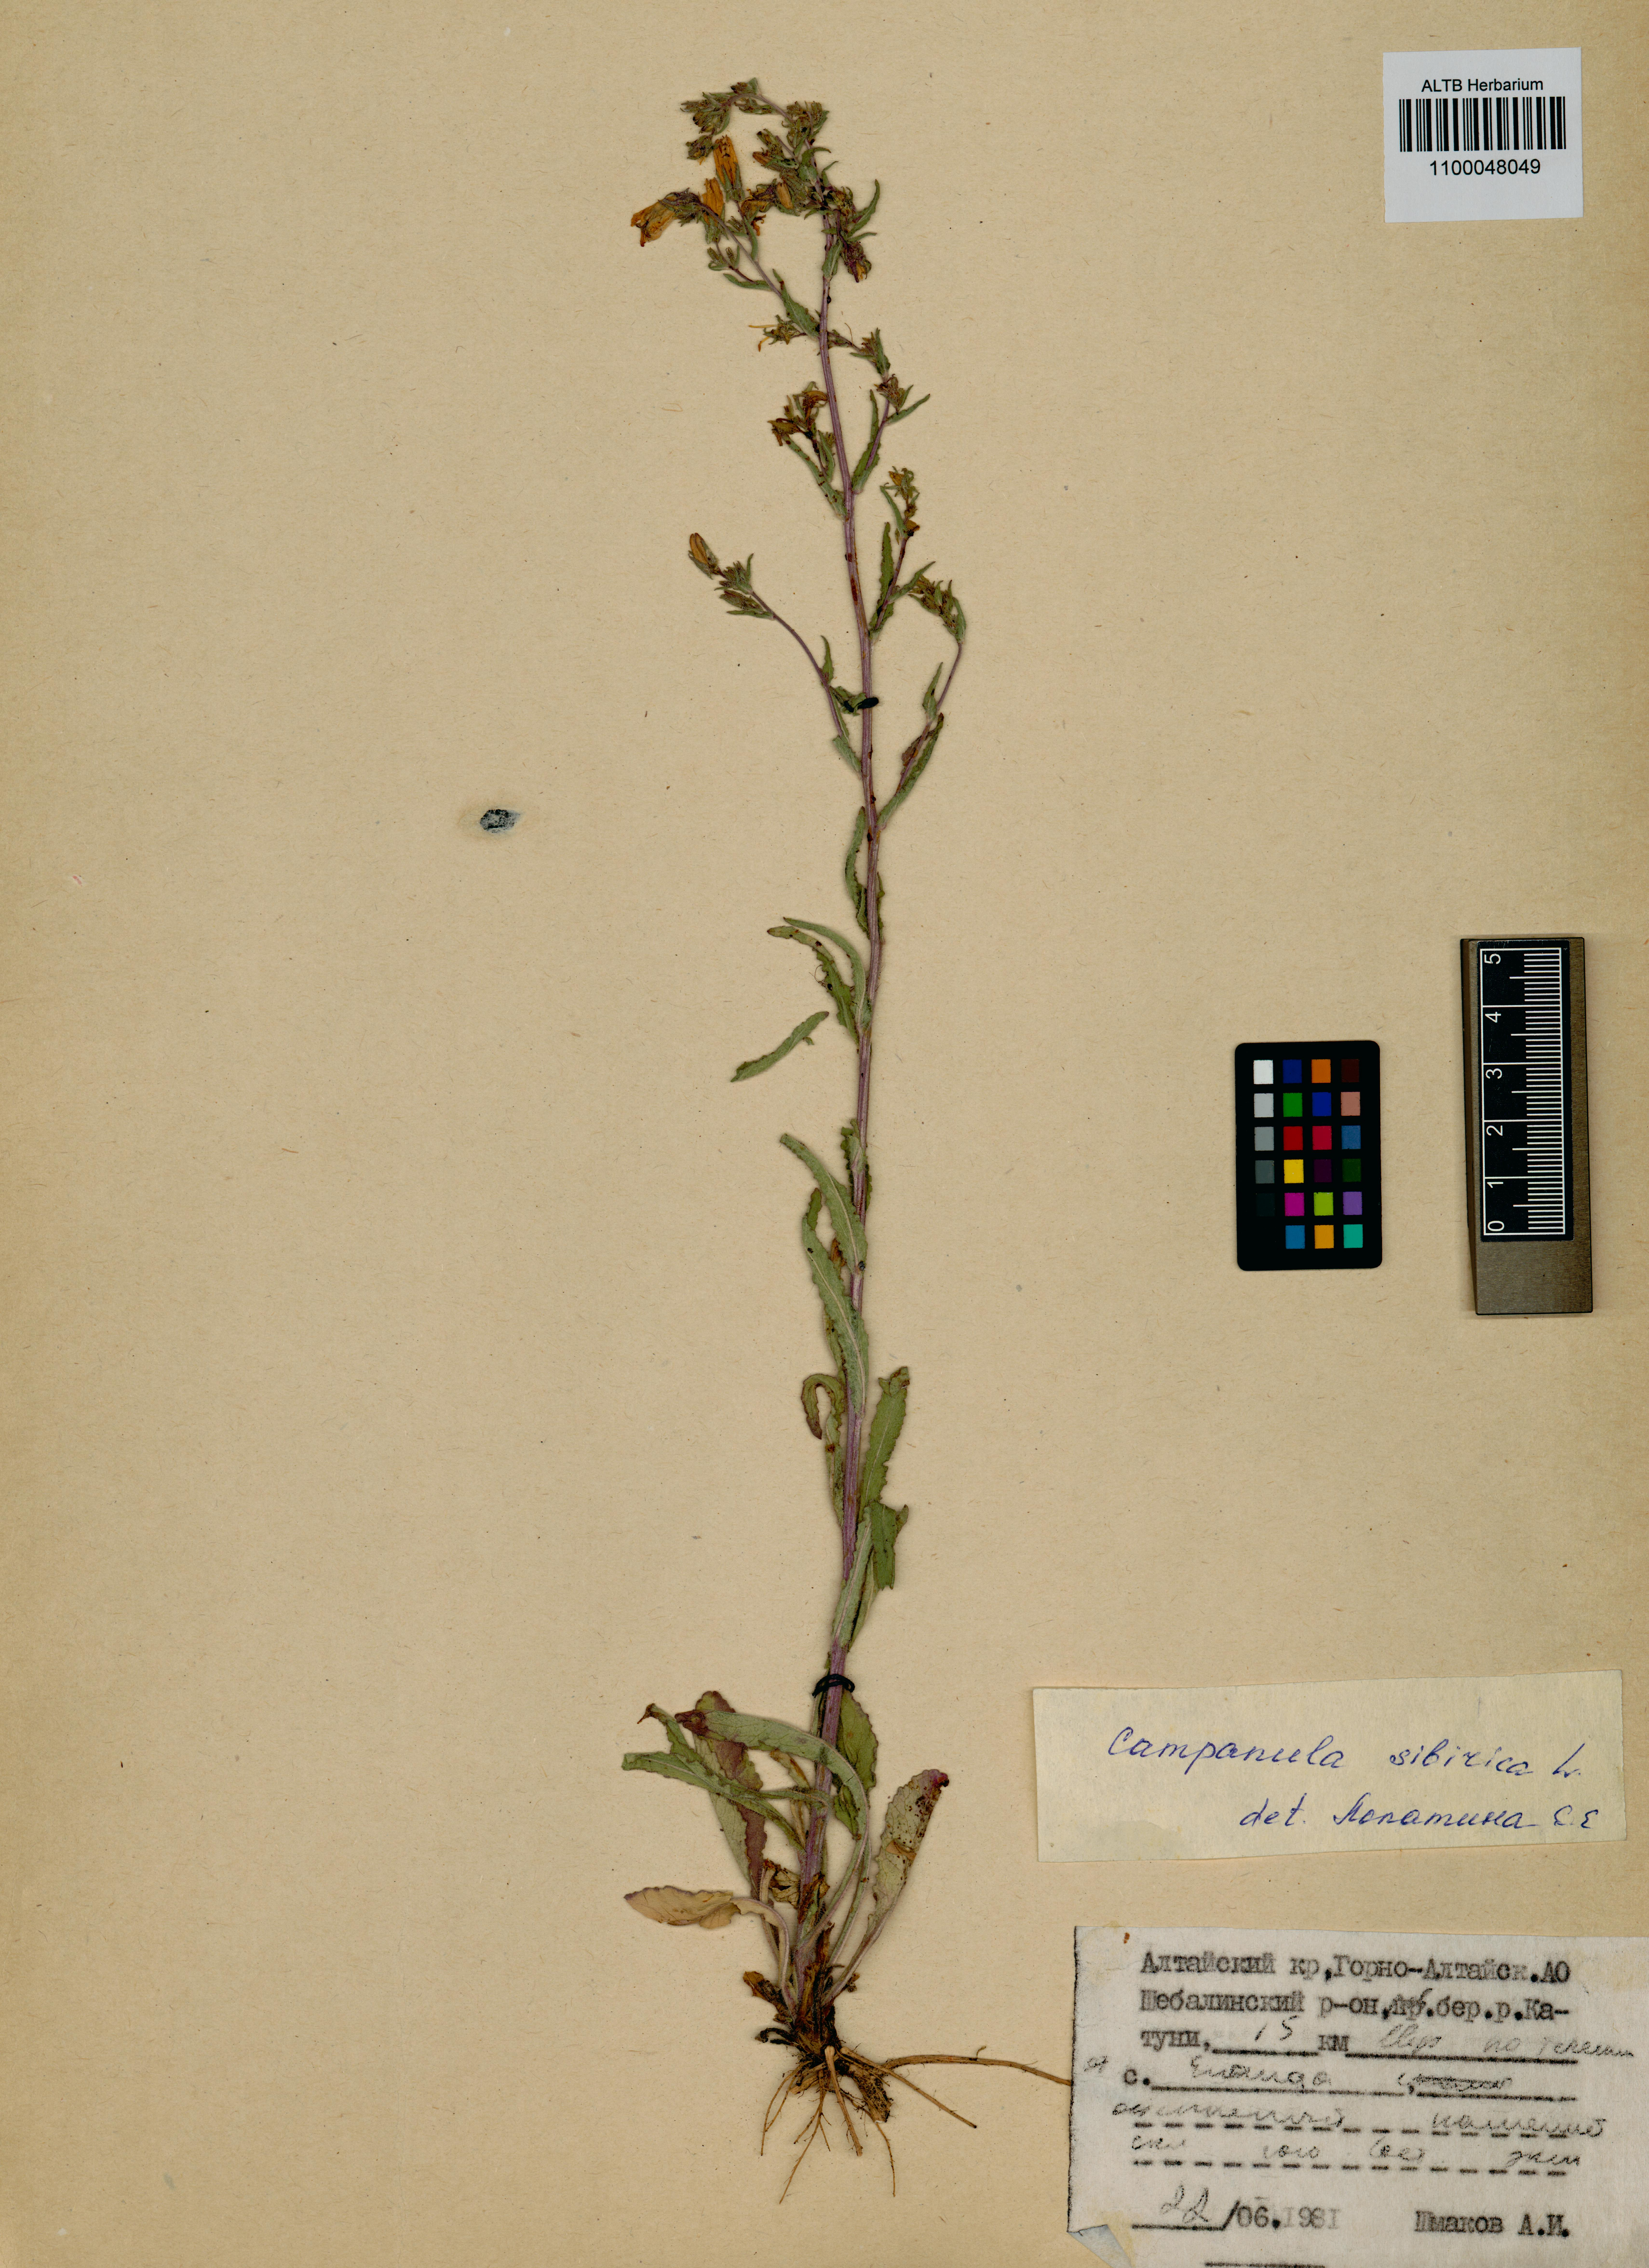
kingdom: Plantae
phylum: Tracheophyta
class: Magnoliopsida
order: Asterales
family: Campanulaceae
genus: Campanula
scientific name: Campanula sibirica
